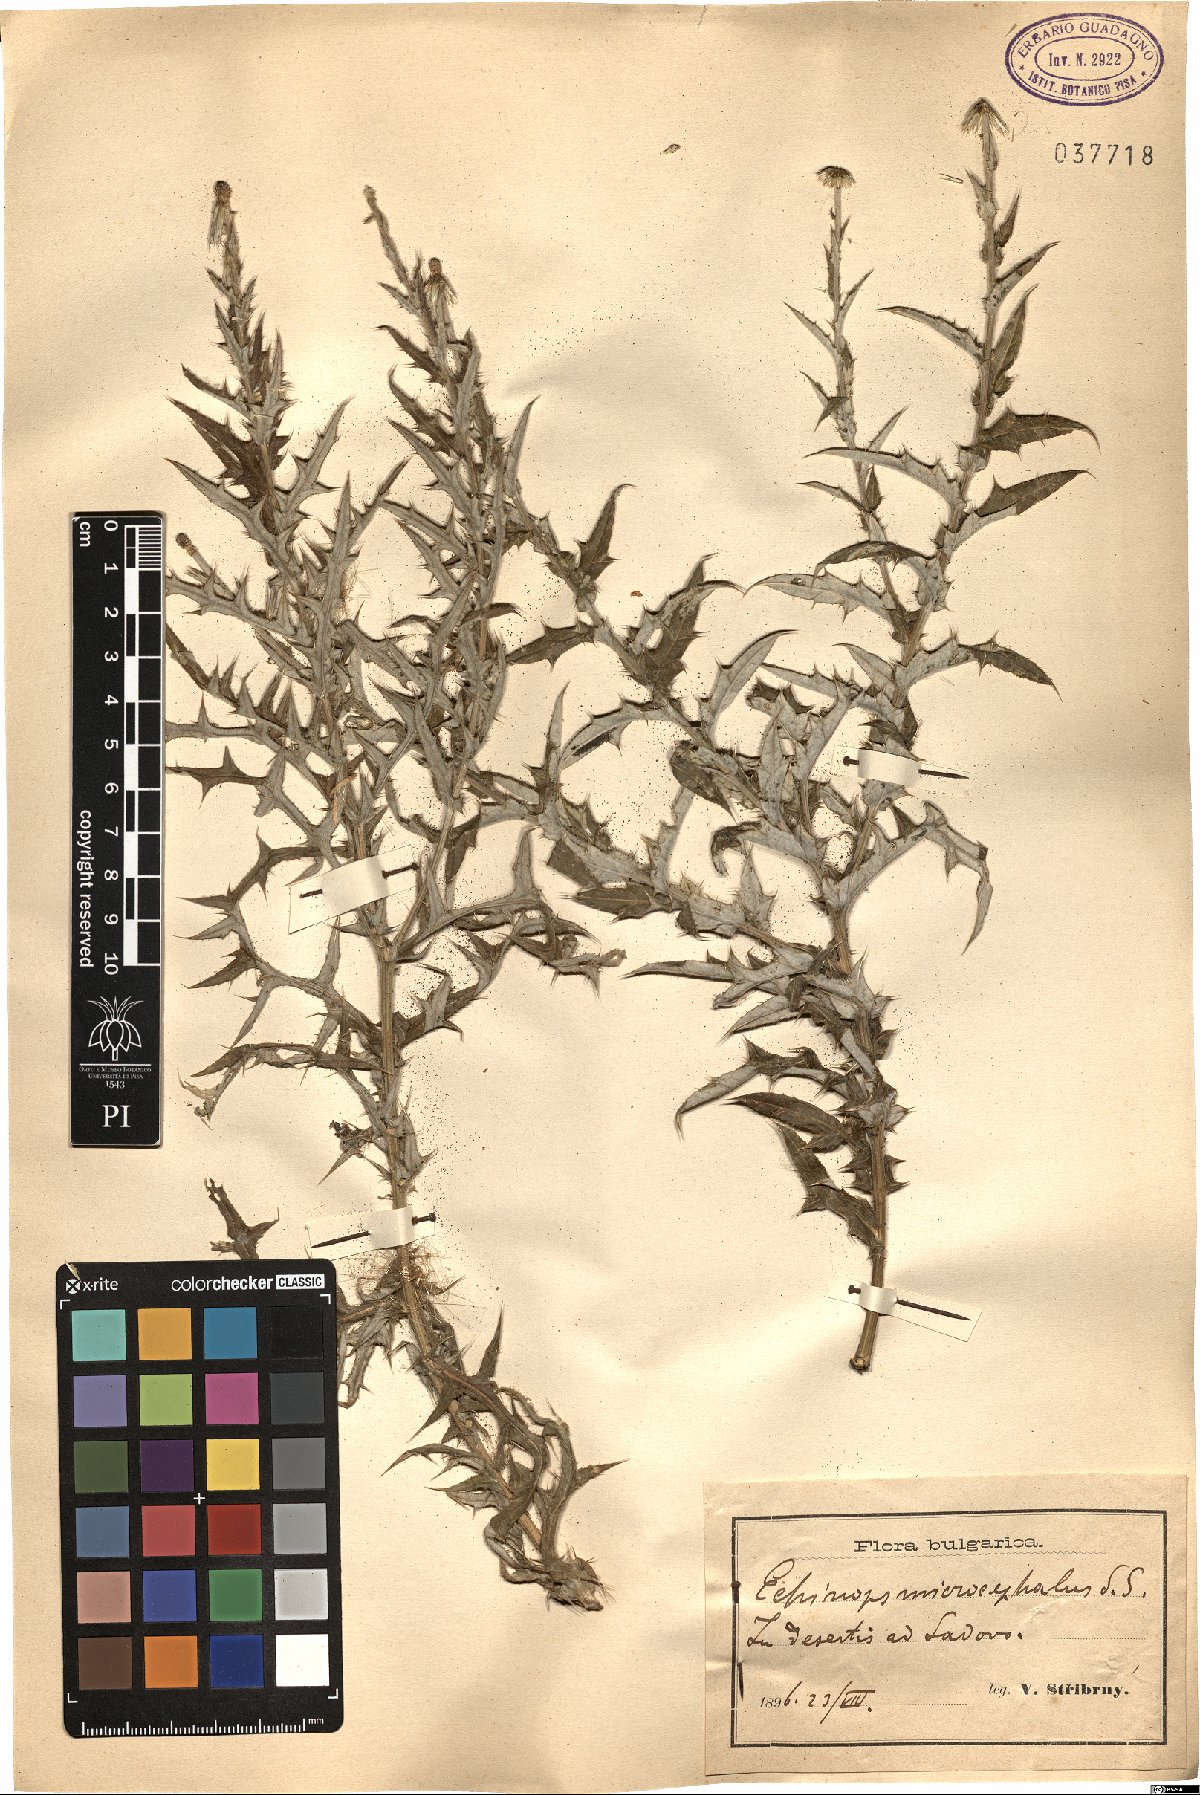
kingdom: Plantae
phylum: Tracheophyta
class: Magnoliopsida
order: Asterales
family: Asteraceae
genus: Echinops
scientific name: Echinops microcephalus
